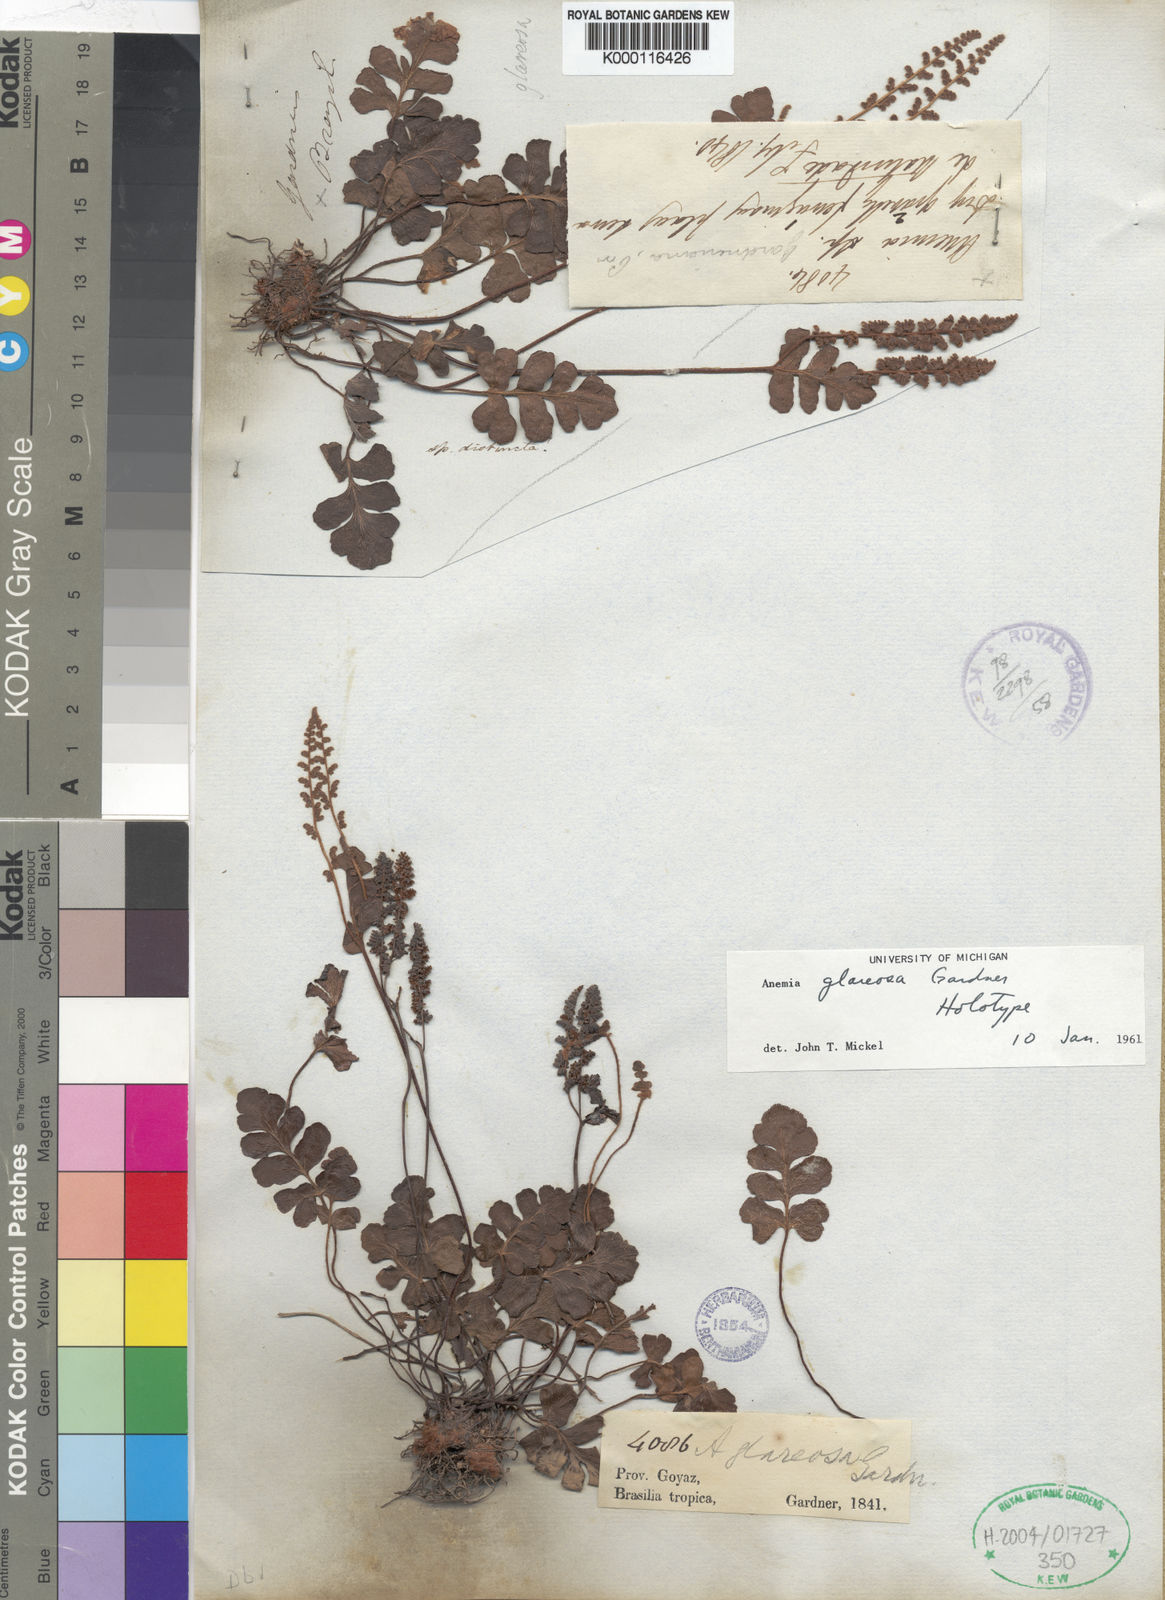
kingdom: Plantae
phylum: Tracheophyta
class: Polypodiopsida
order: Schizaeales
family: Anemiaceae
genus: Anemia
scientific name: Anemia glareosa
